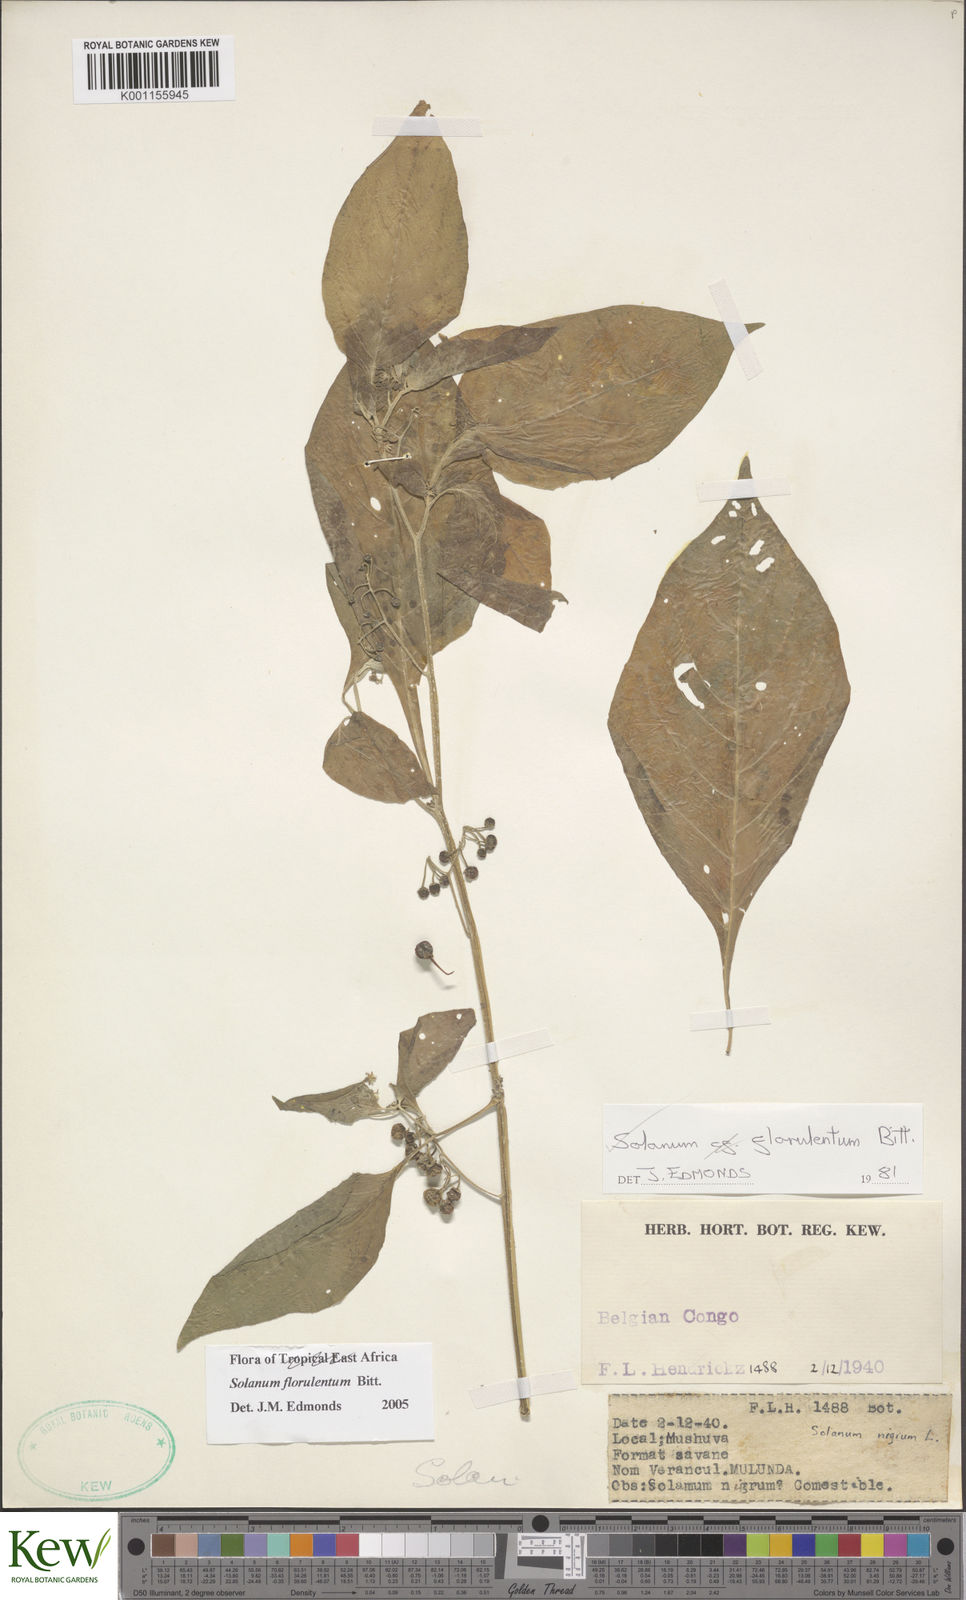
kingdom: Plantae
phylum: Tracheophyta
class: Magnoliopsida
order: Solanales
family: Solanaceae
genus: Solanum
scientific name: Solanum tarderemotum
